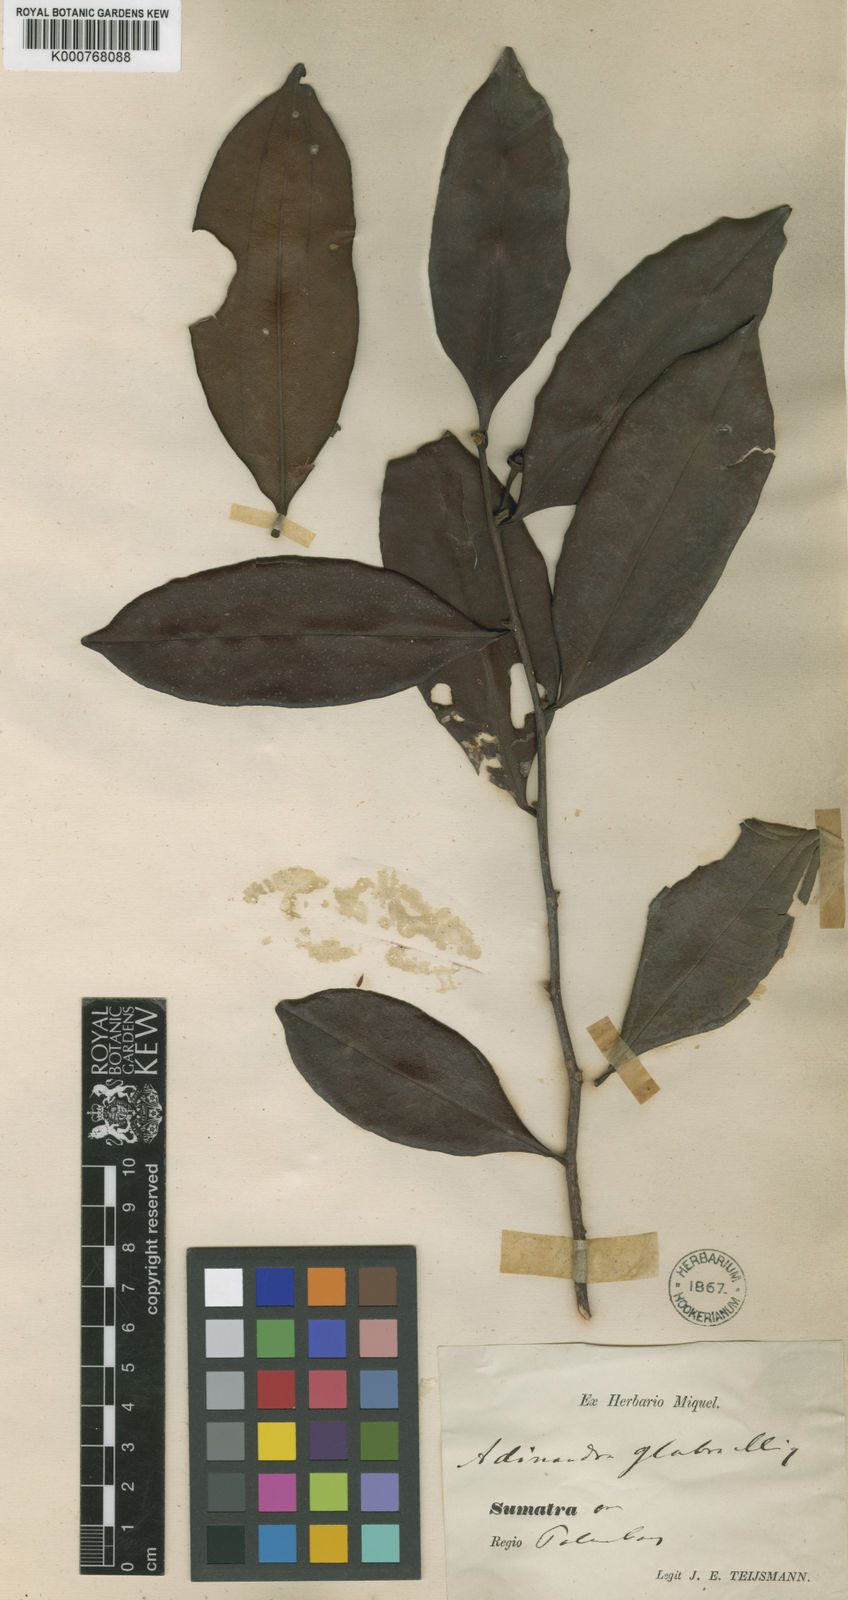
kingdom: Plantae
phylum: Tracheophyta
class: Magnoliopsida
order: Ericales
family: Pentaphylacaceae
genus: Adinandra
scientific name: Adinandra dumosa
